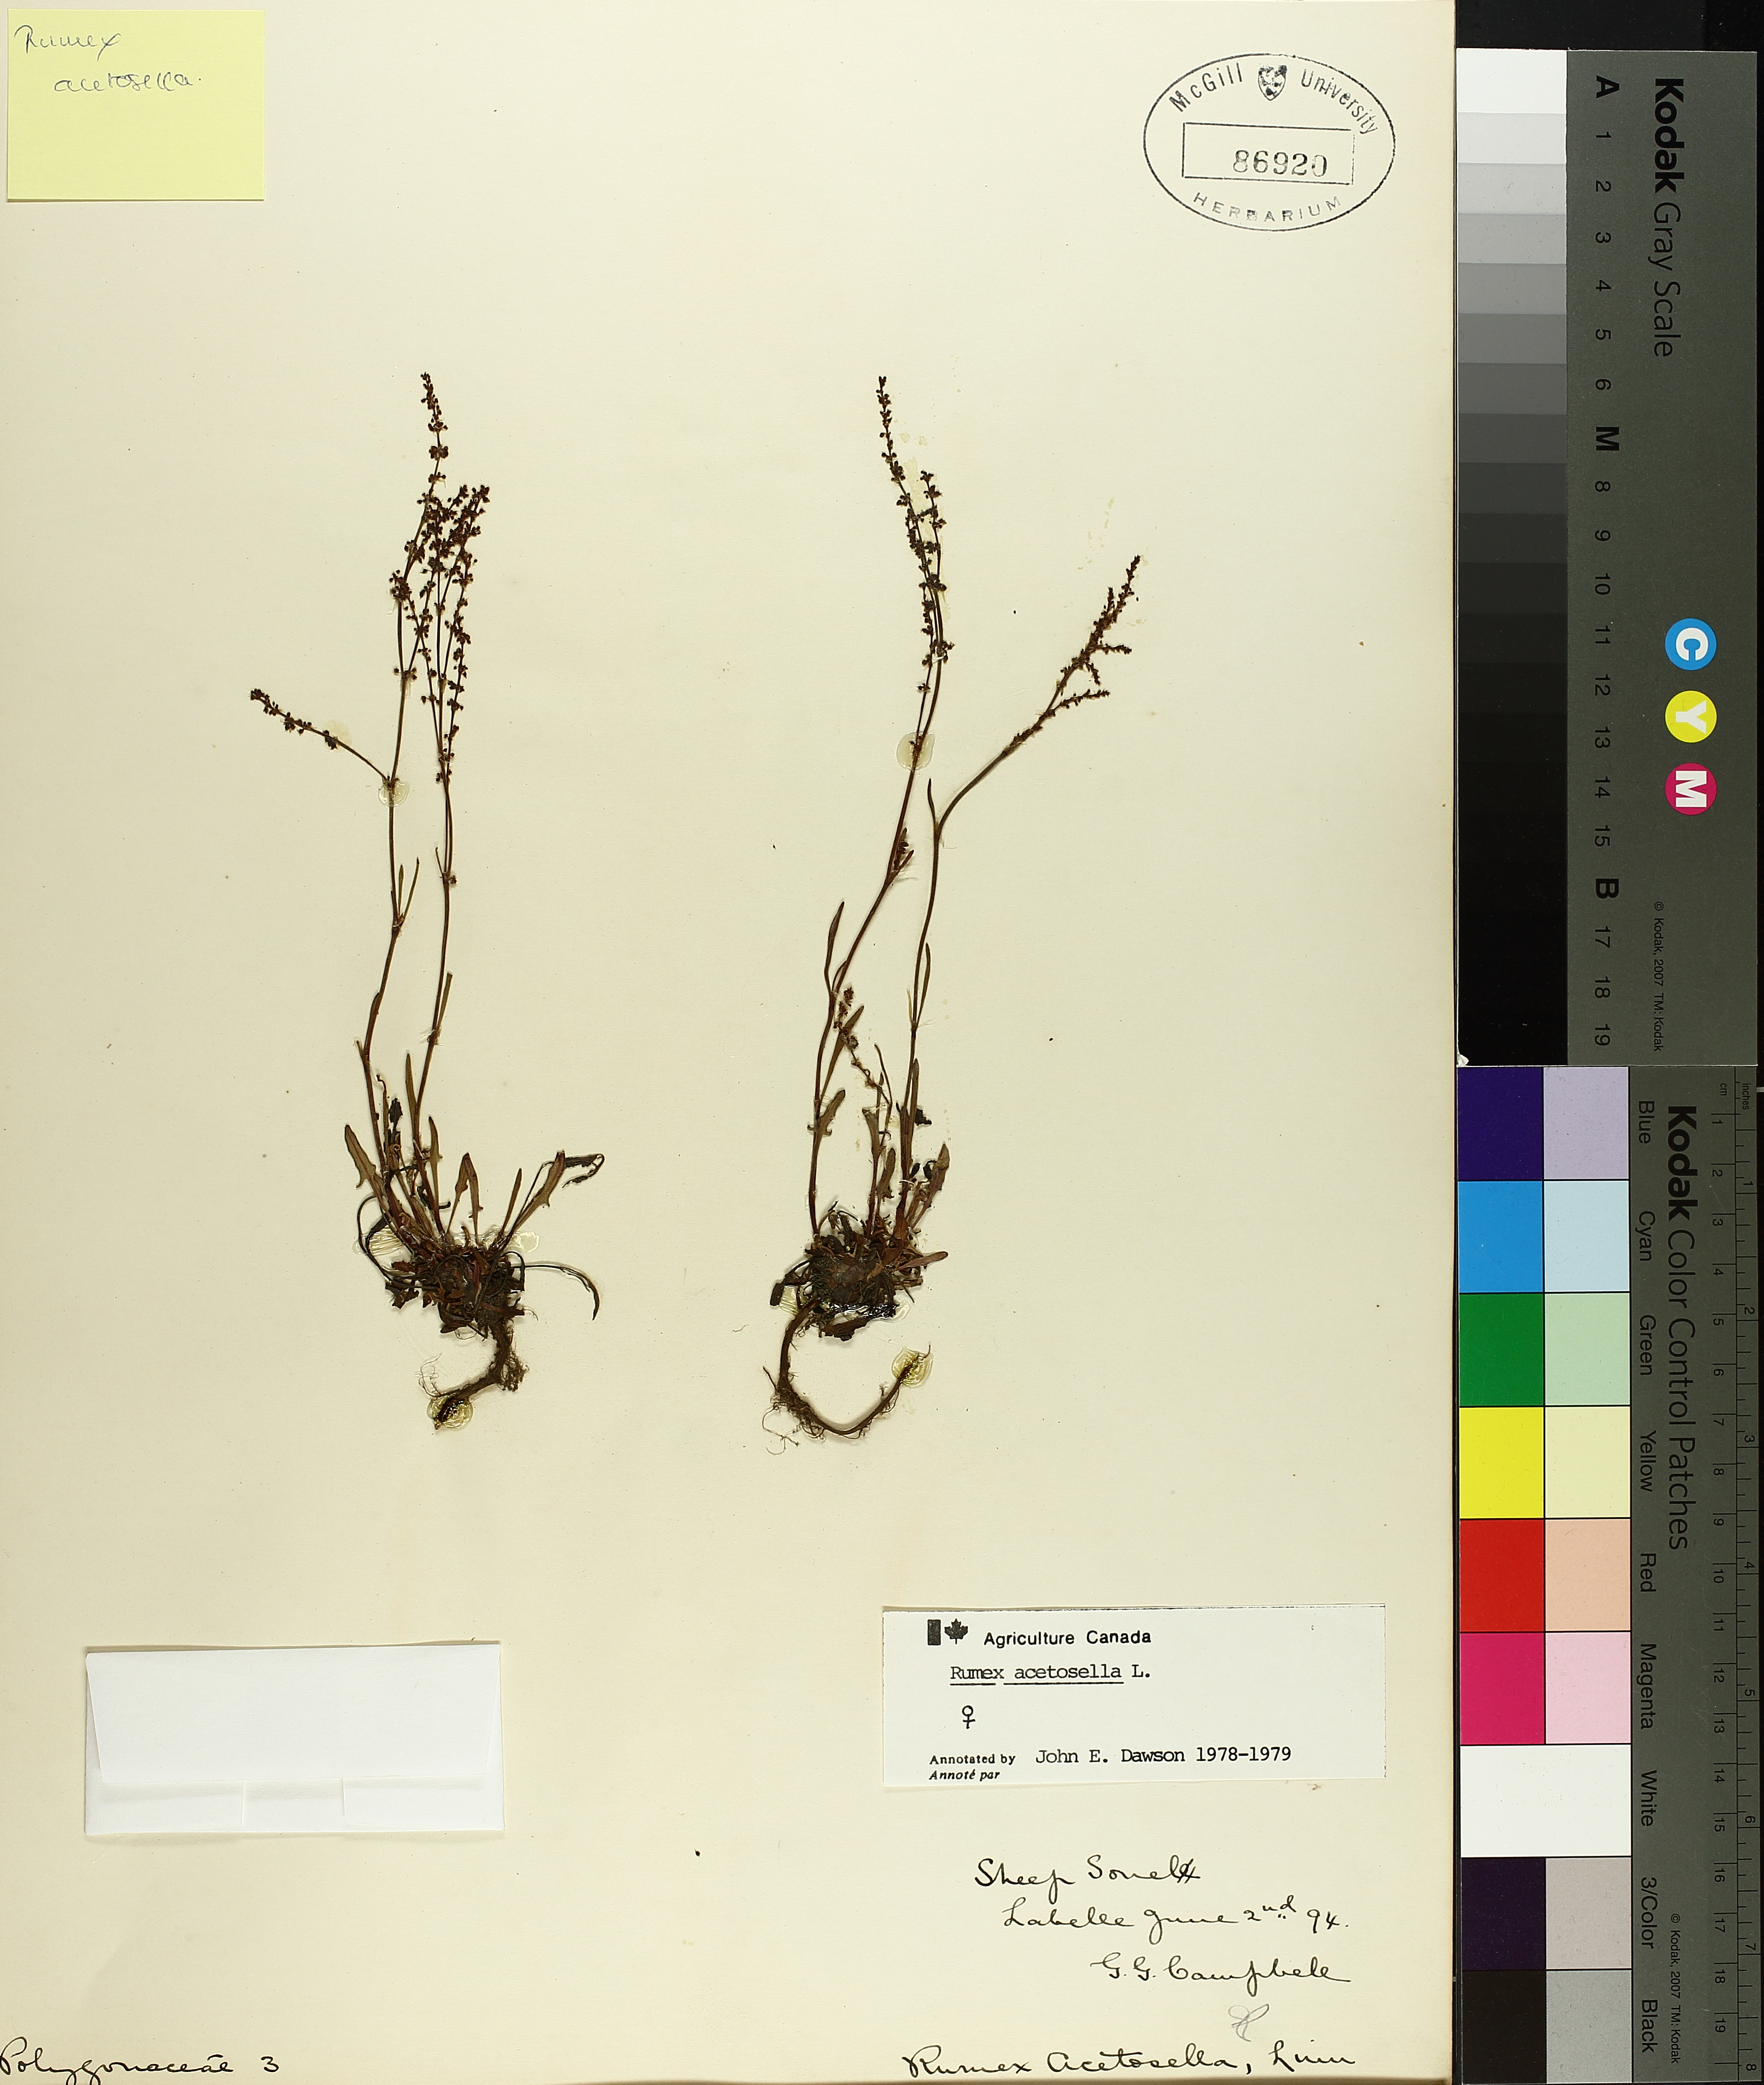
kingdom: Plantae
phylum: Tracheophyta
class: Magnoliopsida
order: Caryophyllales
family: Polygonaceae
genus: Rumex
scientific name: Rumex acetosella
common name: Common sheep sorrel
